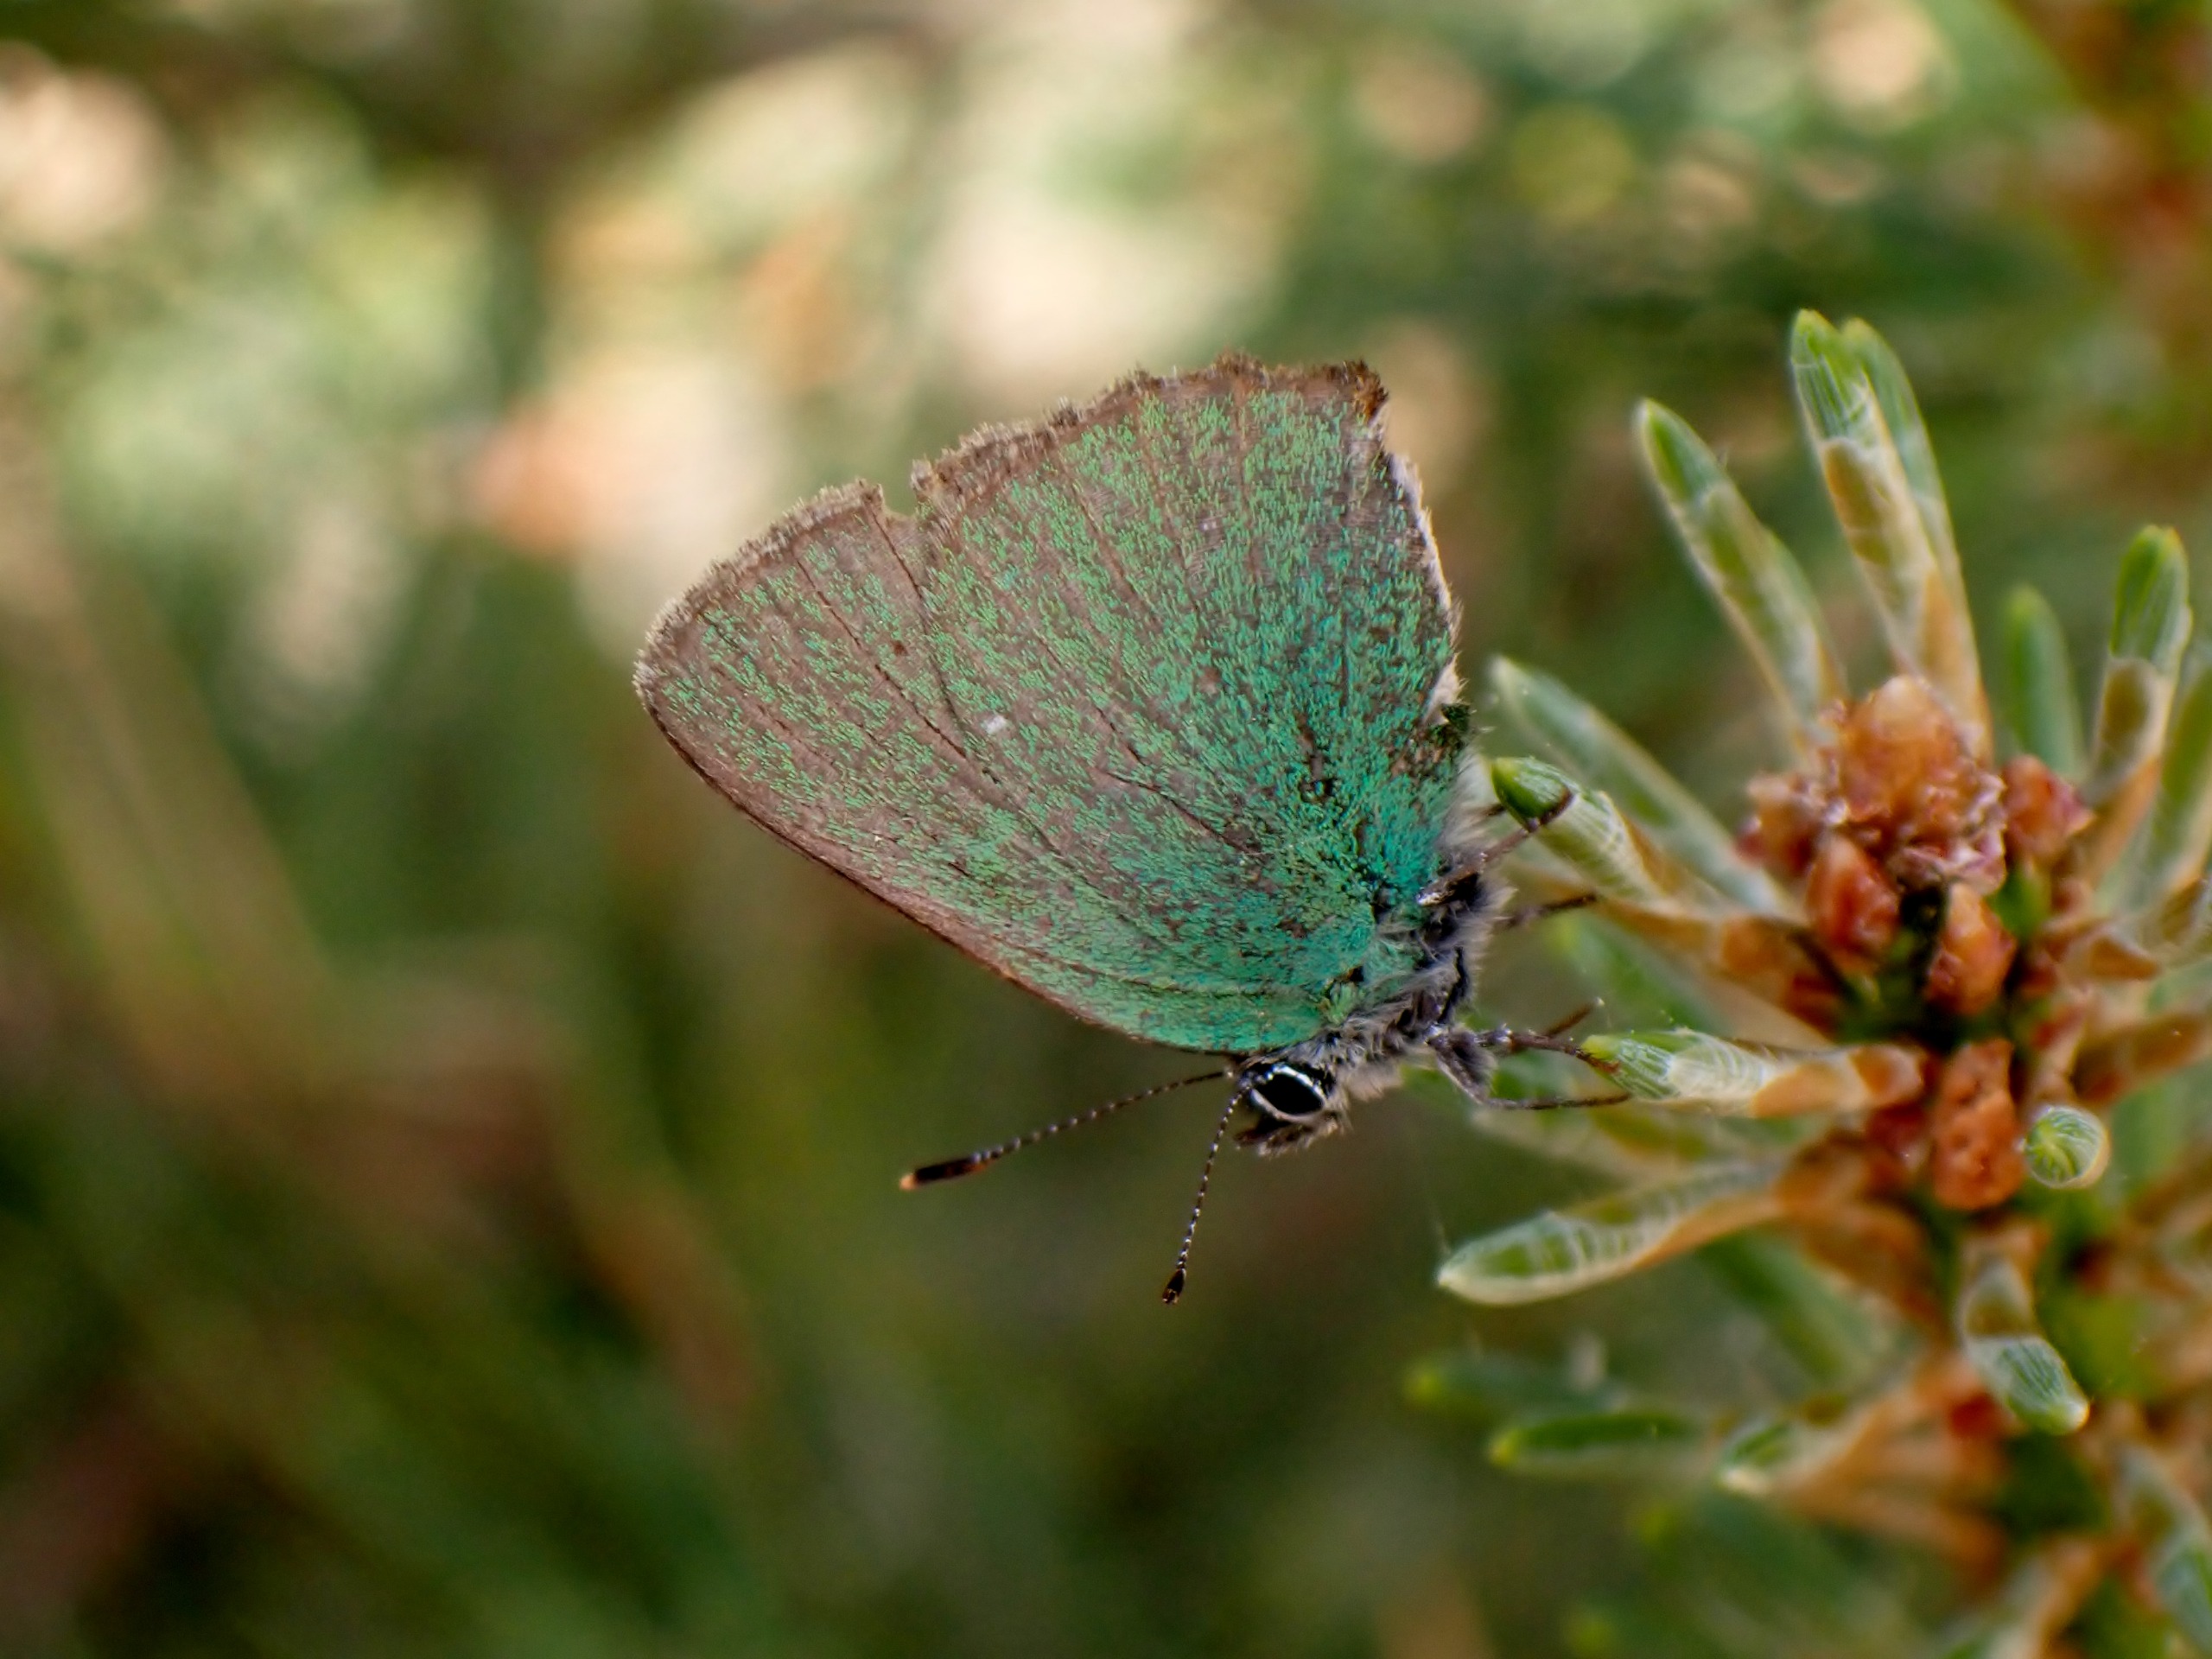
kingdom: Animalia
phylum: Arthropoda
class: Insecta
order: Lepidoptera
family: Lycaenidae
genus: Callophrys
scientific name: Callophrys rubi
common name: Grøn busksommerfugl
